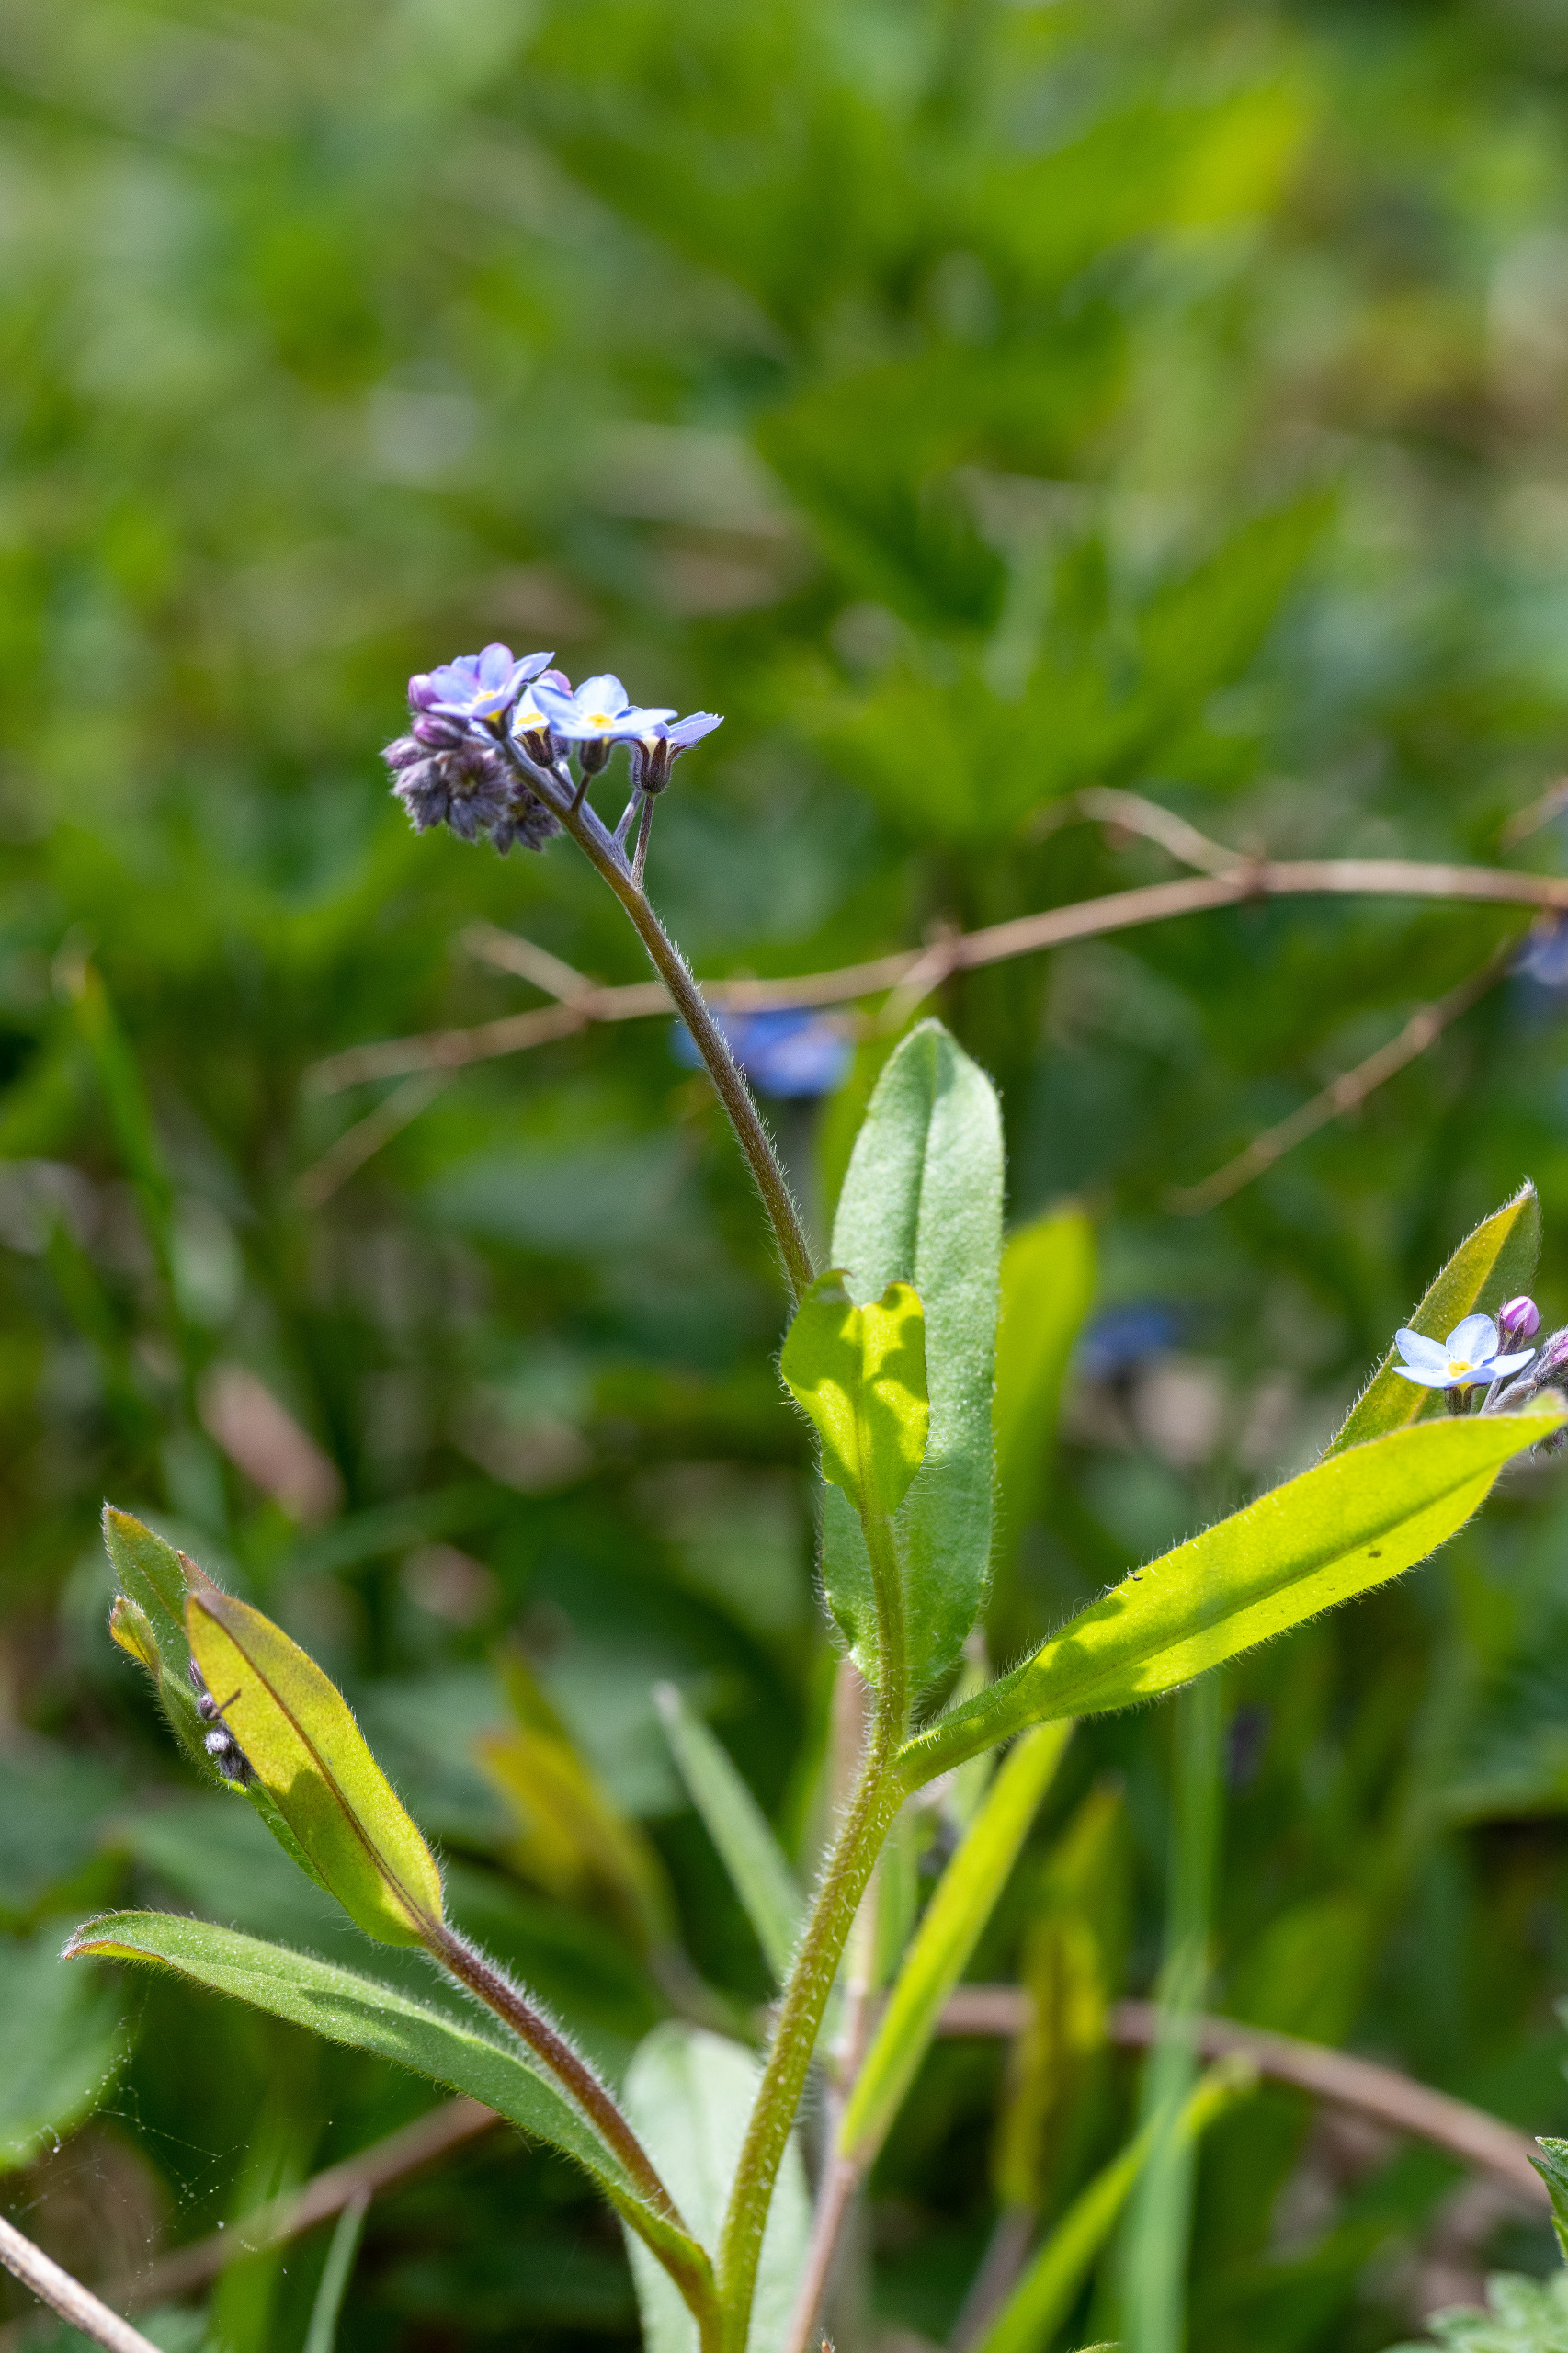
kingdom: Plantae
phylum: Tracheophyta
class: Magnoliopsida
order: Boraginales
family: Boraginaceae
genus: Myosotis
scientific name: Myosotis arvensis
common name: Mark-forglemmigej
